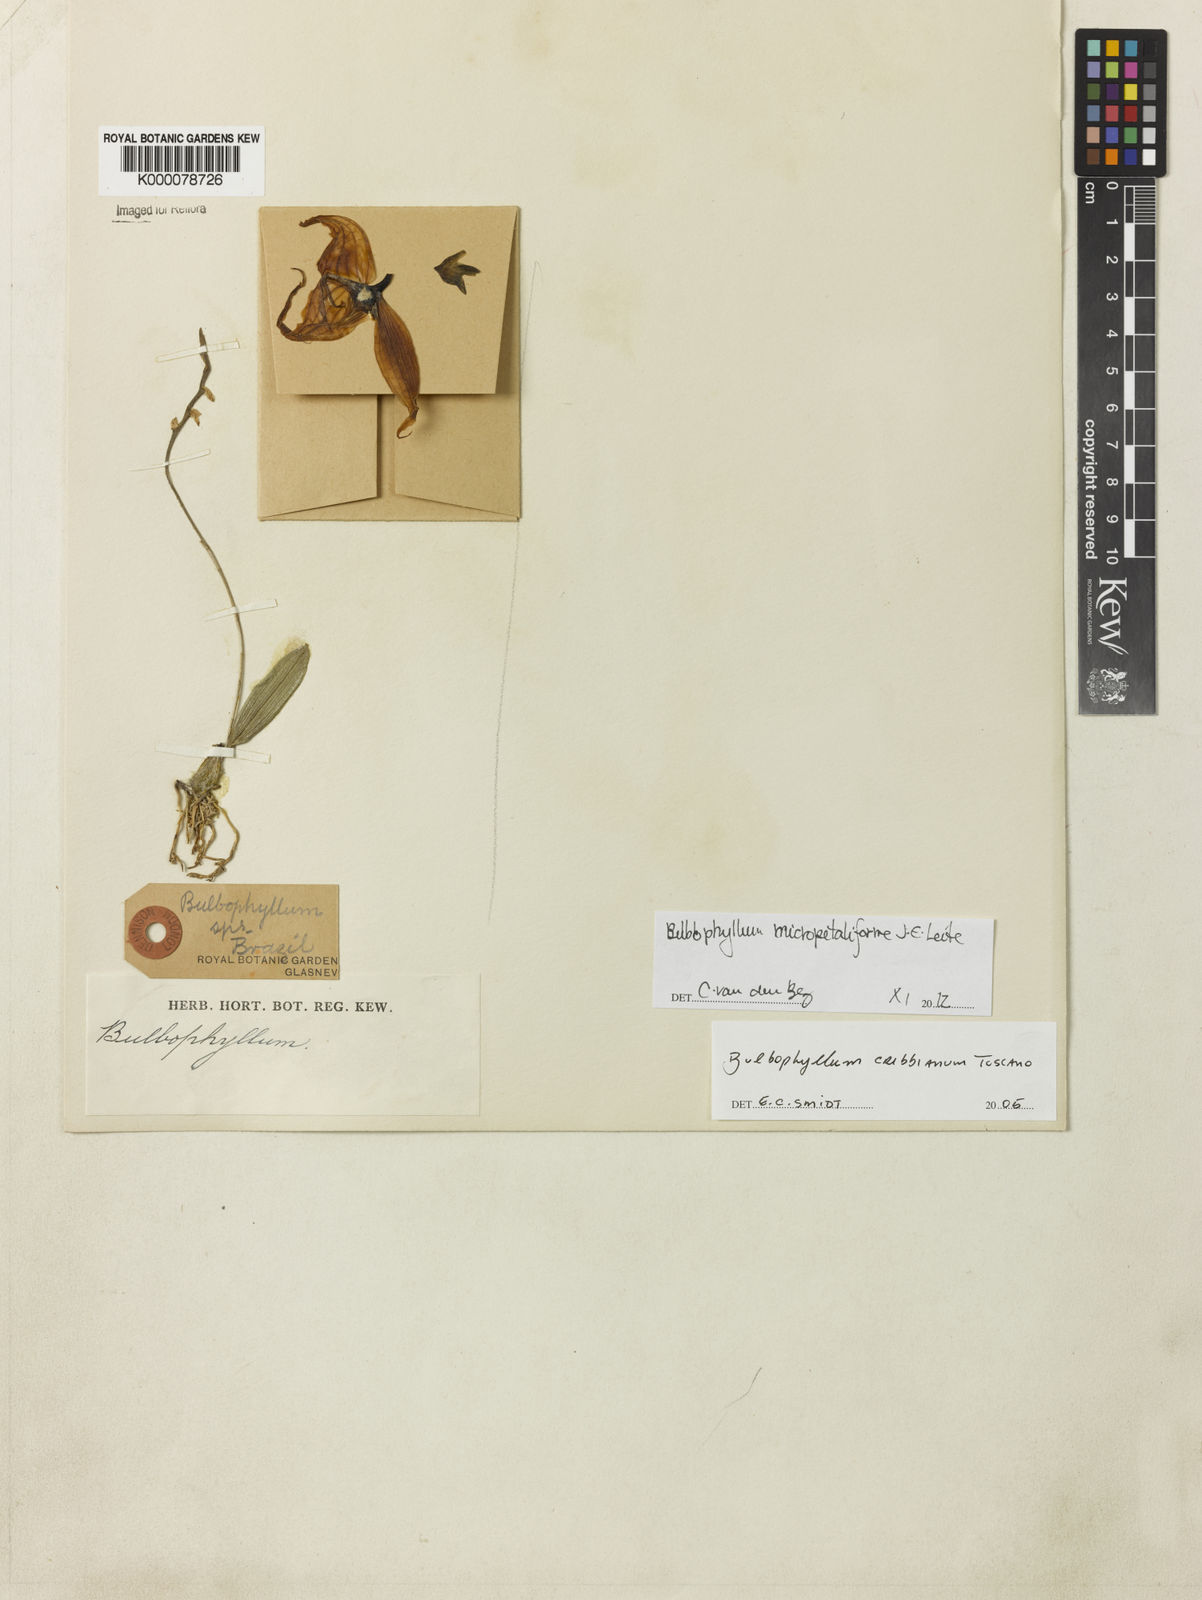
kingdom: Plantae
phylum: Tracheophyta
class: Liliopsida
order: Asparagales
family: Orchidaceae
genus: Bulbophyllum
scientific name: Bulbophyllum
